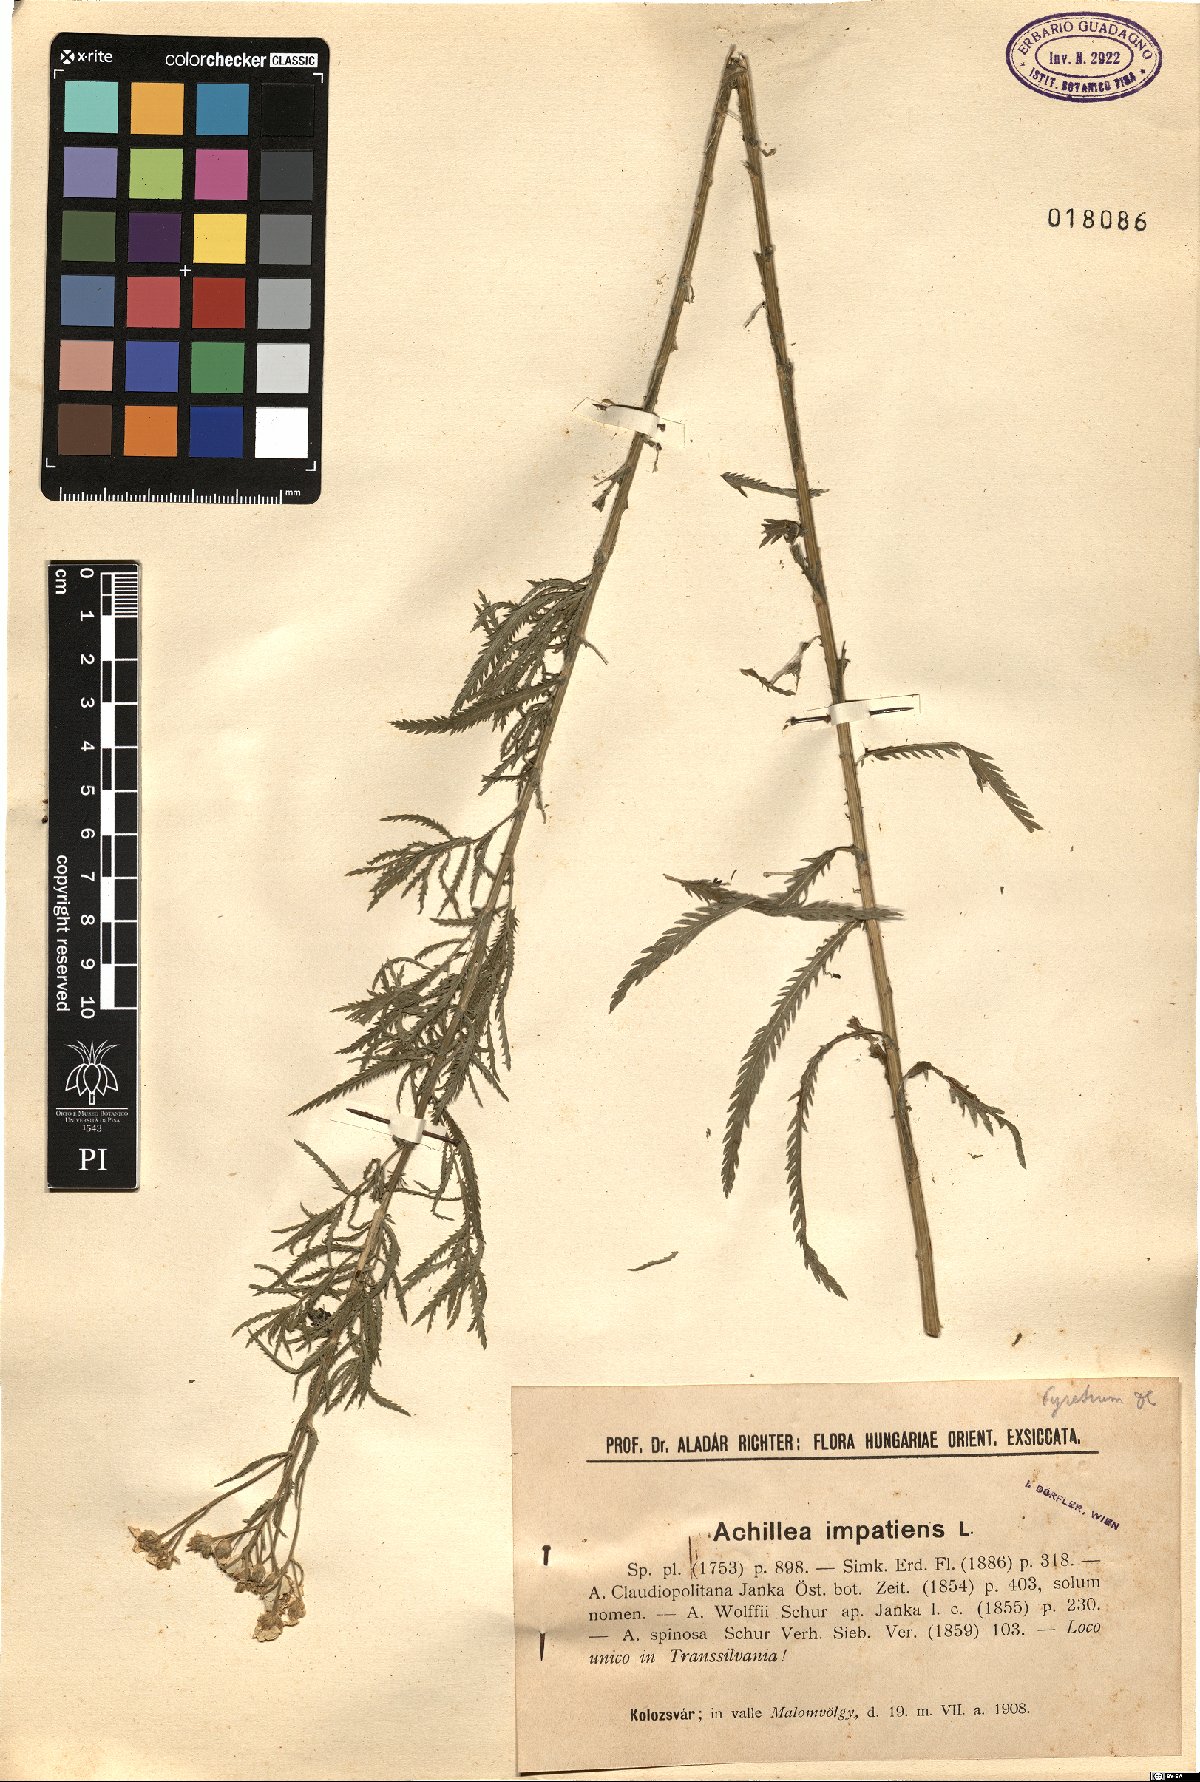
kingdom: Plantae
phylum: Tracheophyta
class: Magnoliopsida
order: Asterales
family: Asteraceae
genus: Achillea
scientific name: Achillea impatiens
